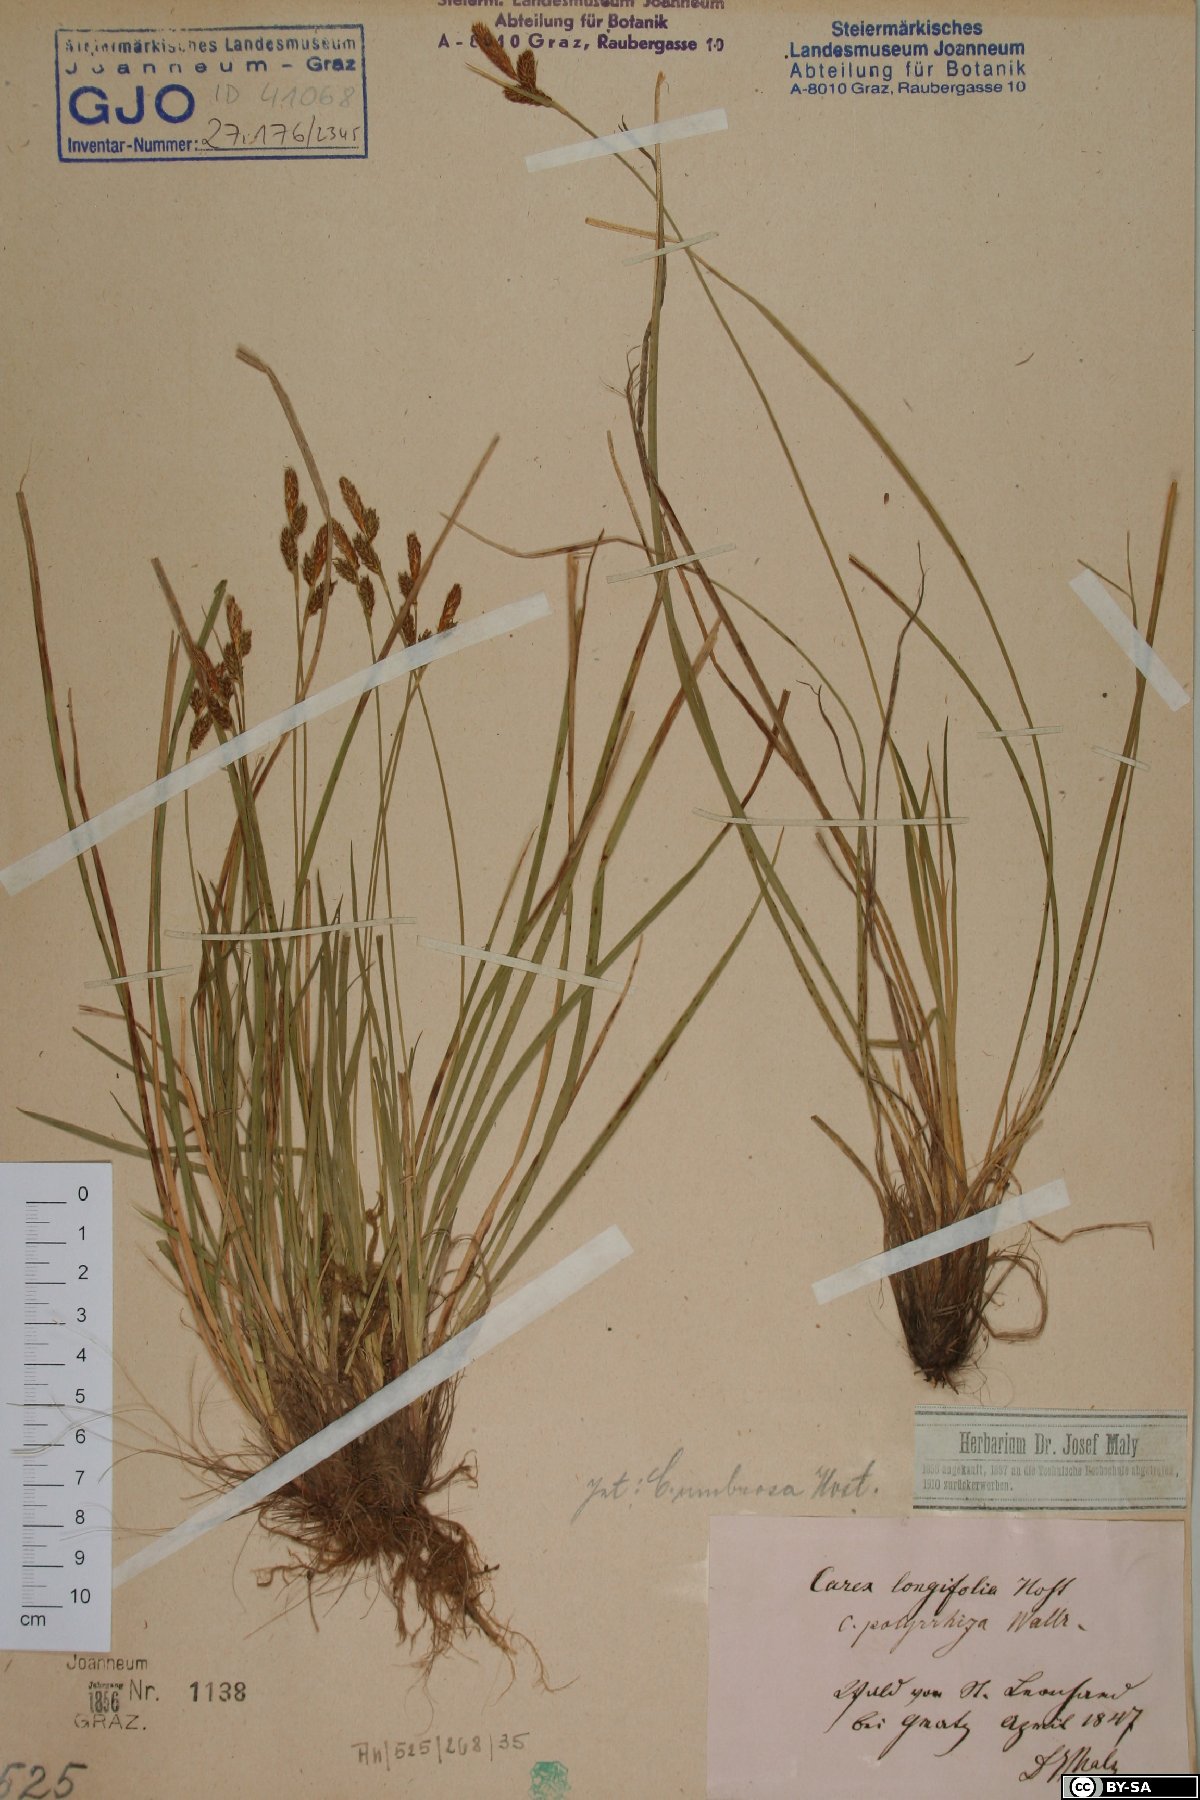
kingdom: Plantae
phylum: Tracheophyta
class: Liliopsida
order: Poales
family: Cyperaceae
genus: Carex
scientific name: Carex umbrosa
